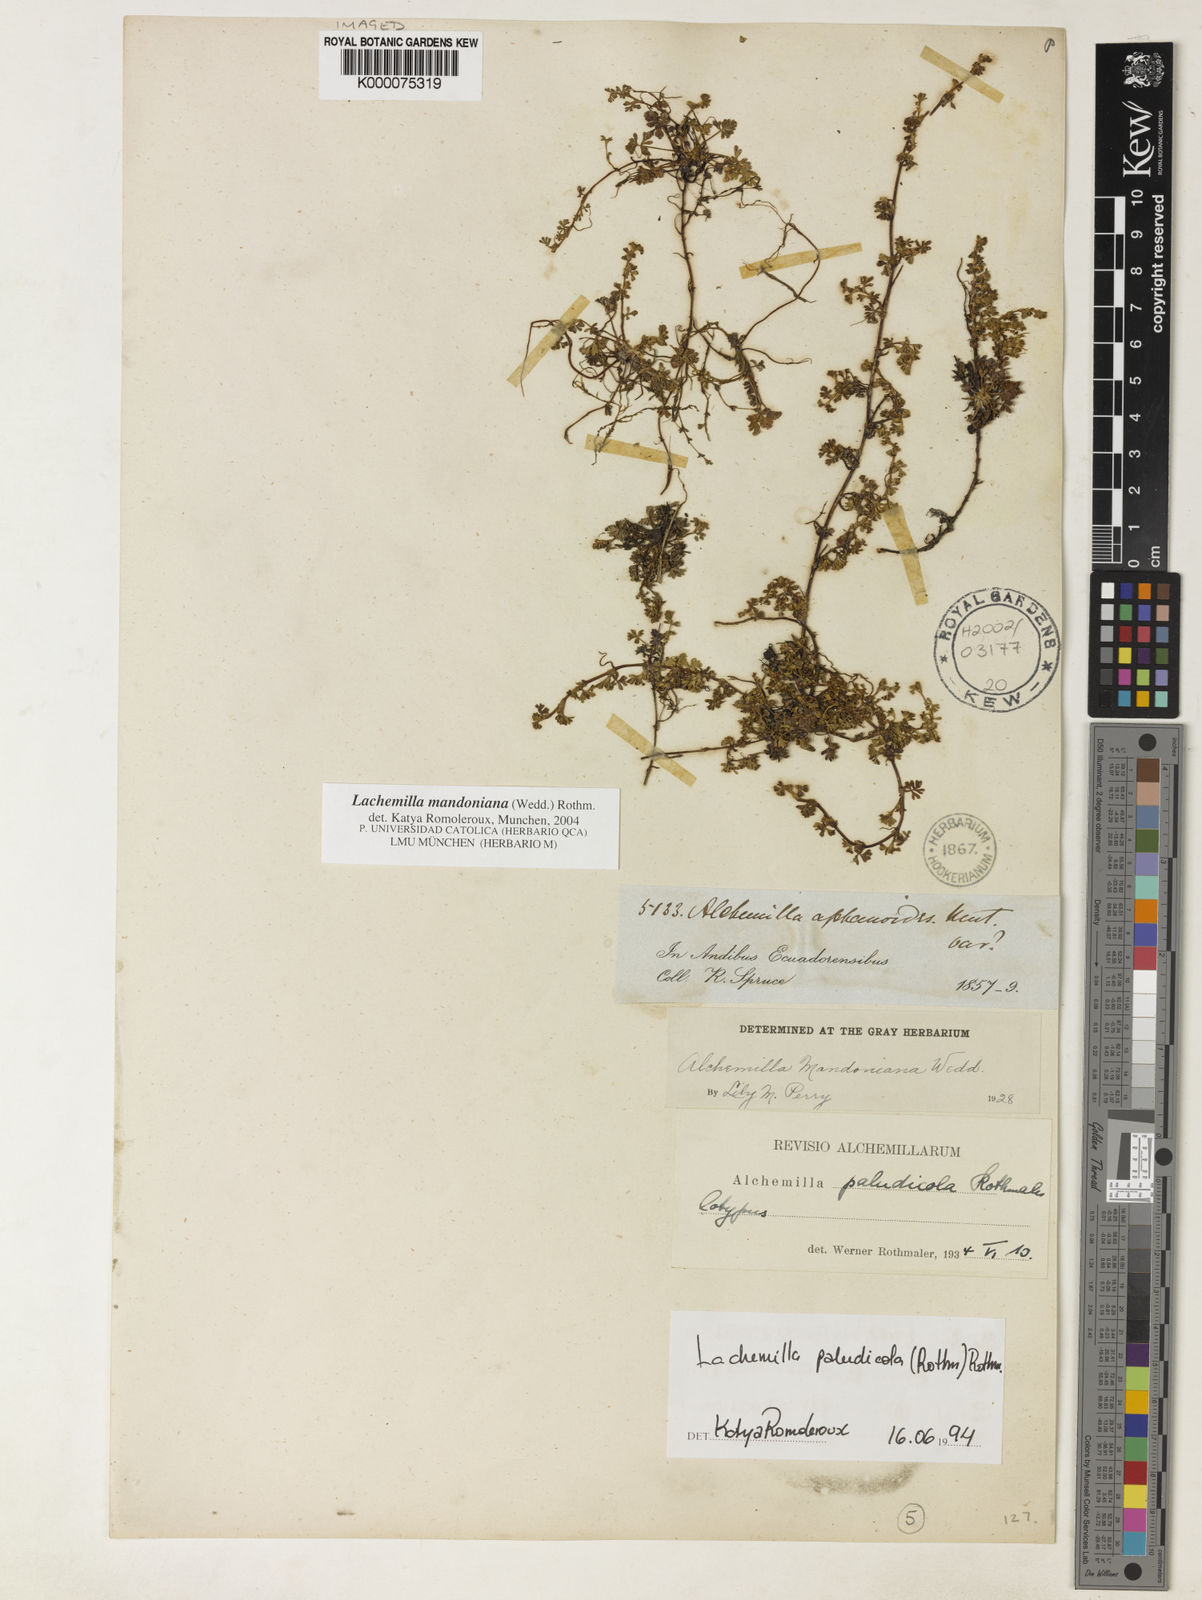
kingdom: Plantae
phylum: Tracheophyta
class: Magnoliopsida
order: Rosales
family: Rosaceae
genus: Lachemilla
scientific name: Lachemilla mandoniana
